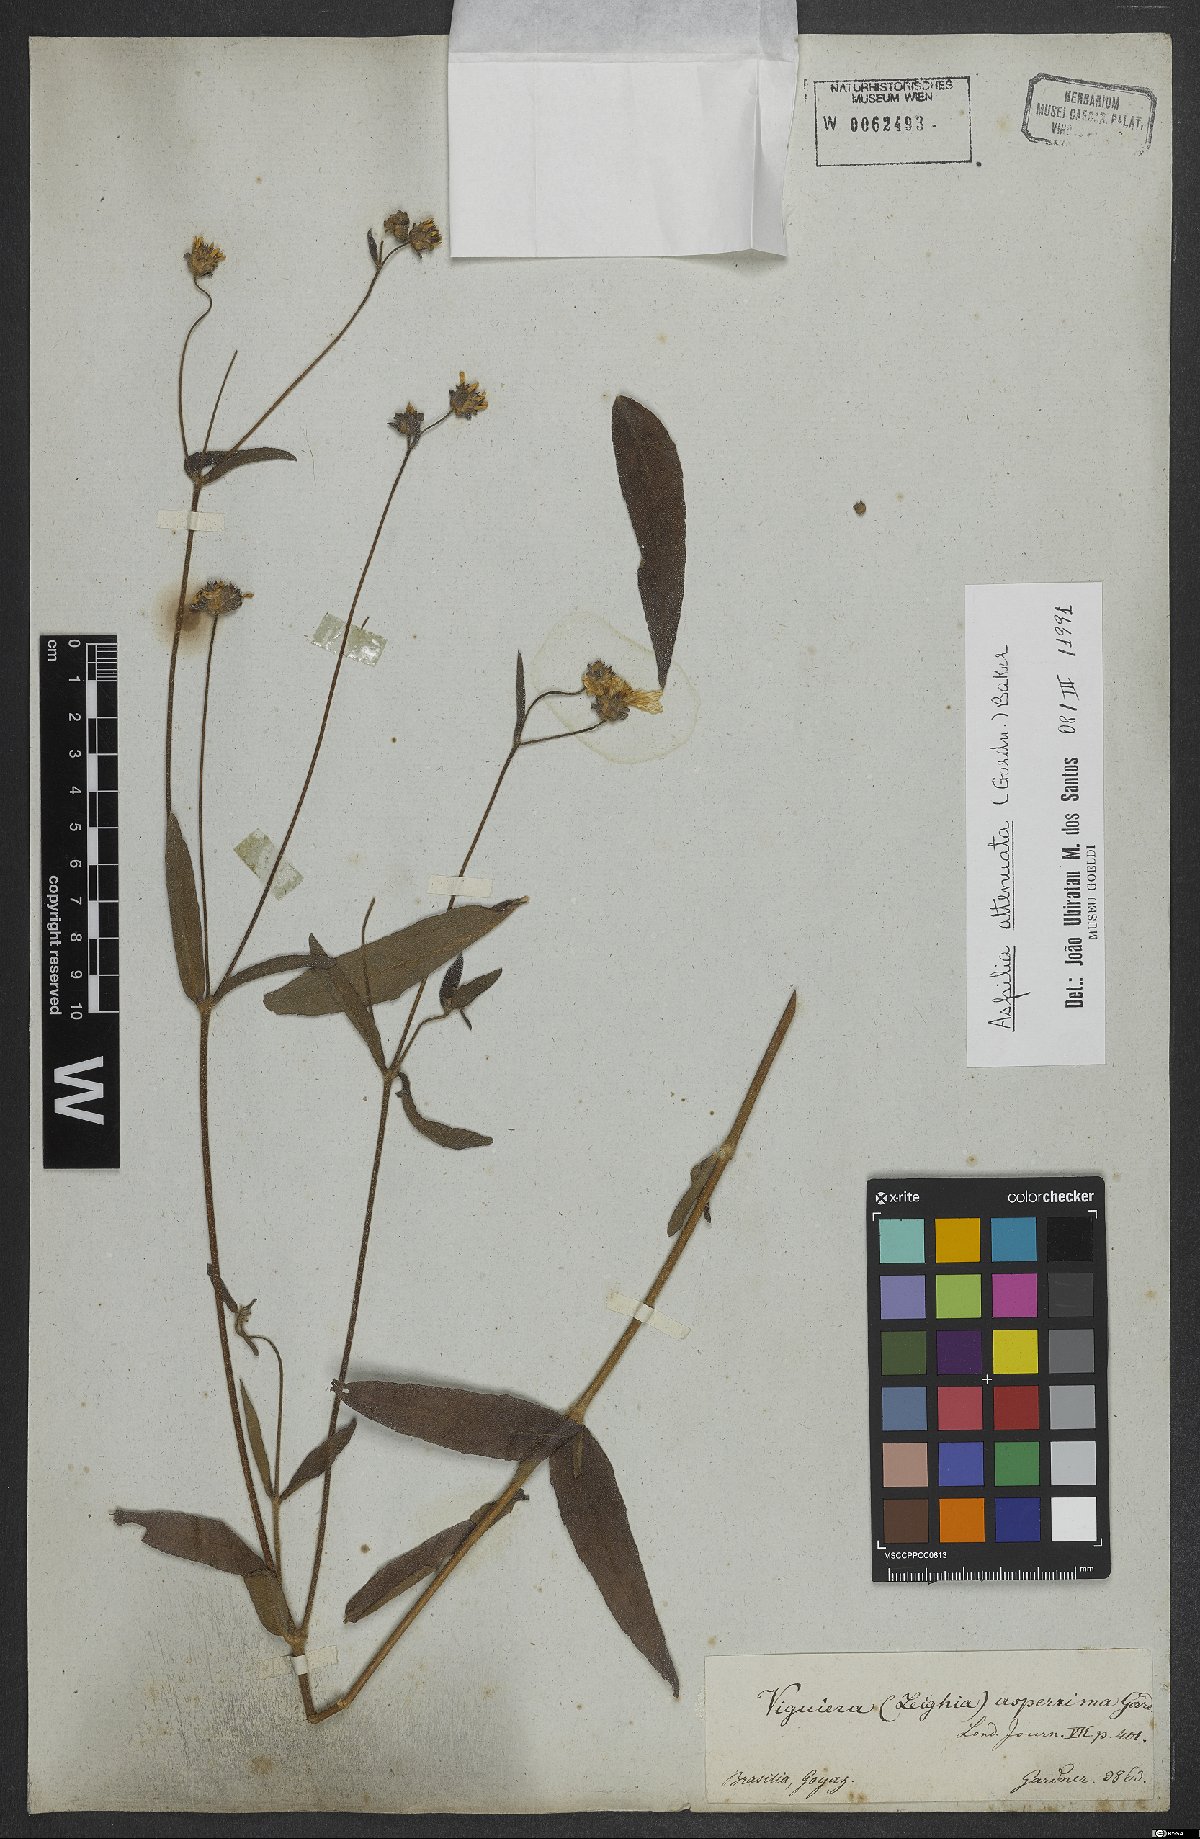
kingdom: Plantae
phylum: Tracheophyta
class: Magnoliopsida
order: Asterales
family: Asteraceae
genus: Wedelia
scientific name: Wedelia attenuata
